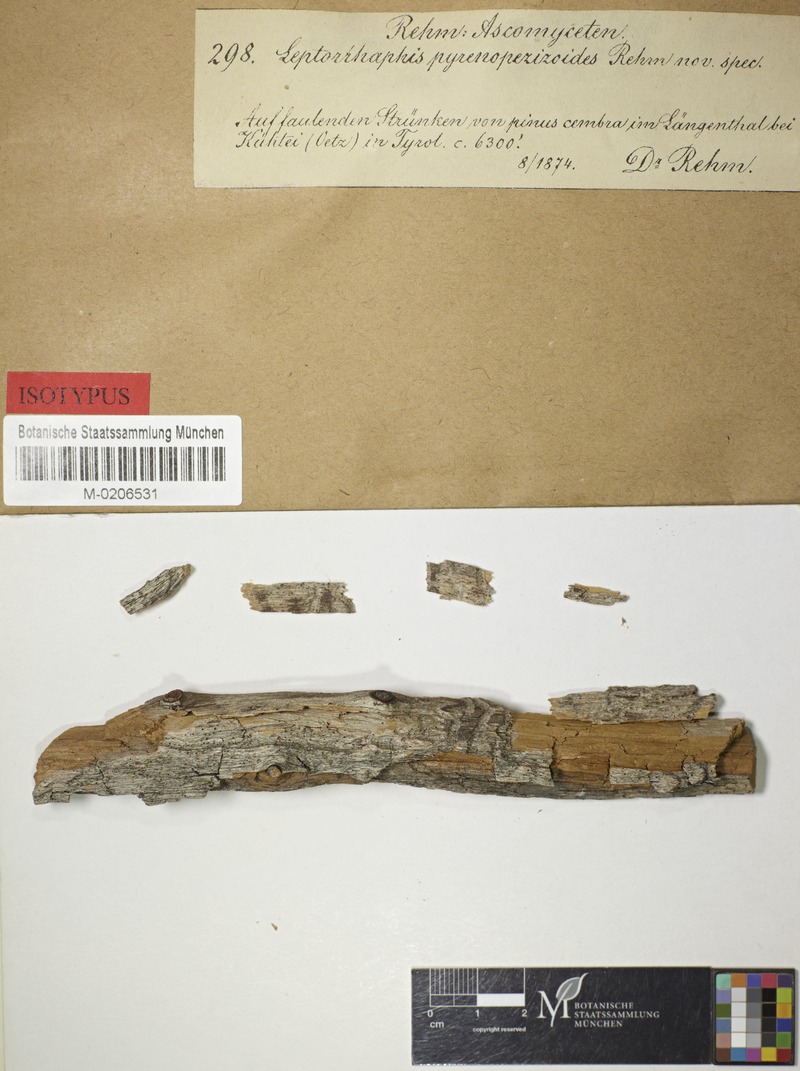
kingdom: Fungi
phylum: Ascomycota
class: Lecanoromycetes
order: Ostropales
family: Odontotremataceae
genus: Odontura
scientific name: Odontura rhaphidospora
